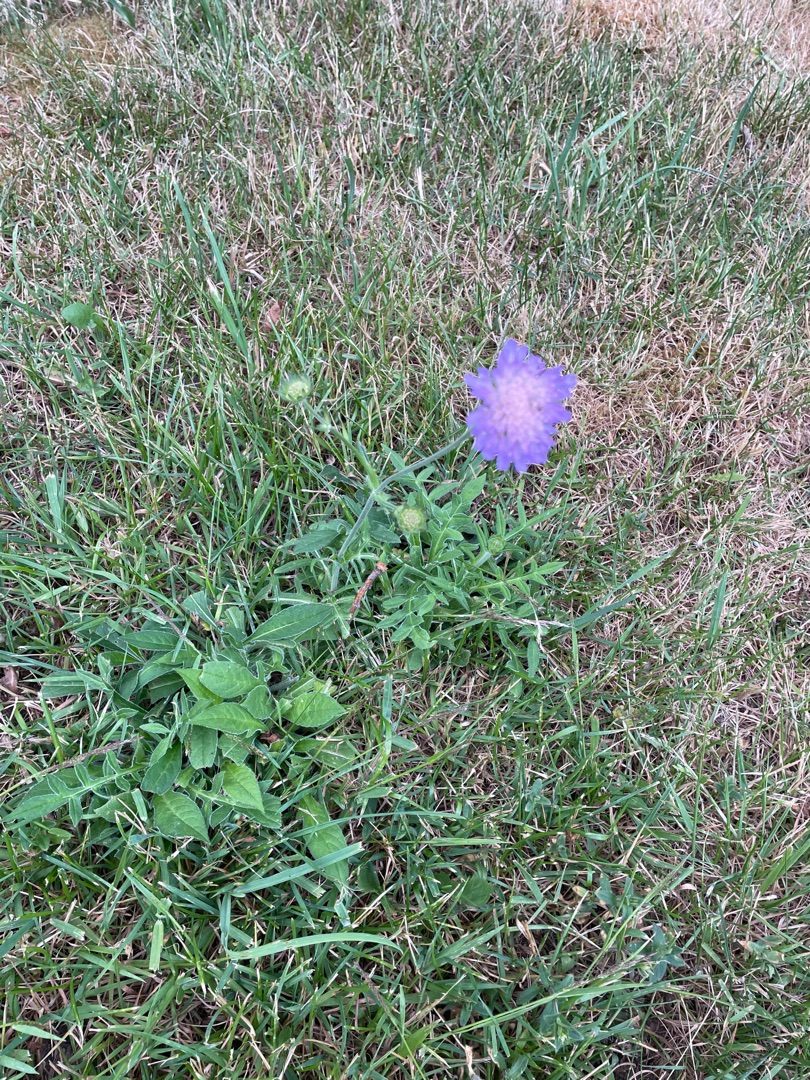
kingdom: Plantae
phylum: Tracheophyta
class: Magnoliopsida
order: Dipsacales
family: Caprifoliaceae
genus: Knautia
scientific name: Knautia arvensis
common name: Blåhat
